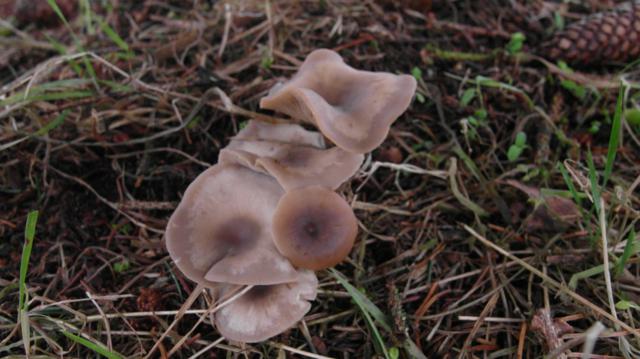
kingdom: Fungi
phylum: Basidiomycota
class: Agaricomycetes
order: Agaricales
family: Tricholomataceae
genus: Clitocybe
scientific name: Clitocybe metachroa
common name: grå tragthat
